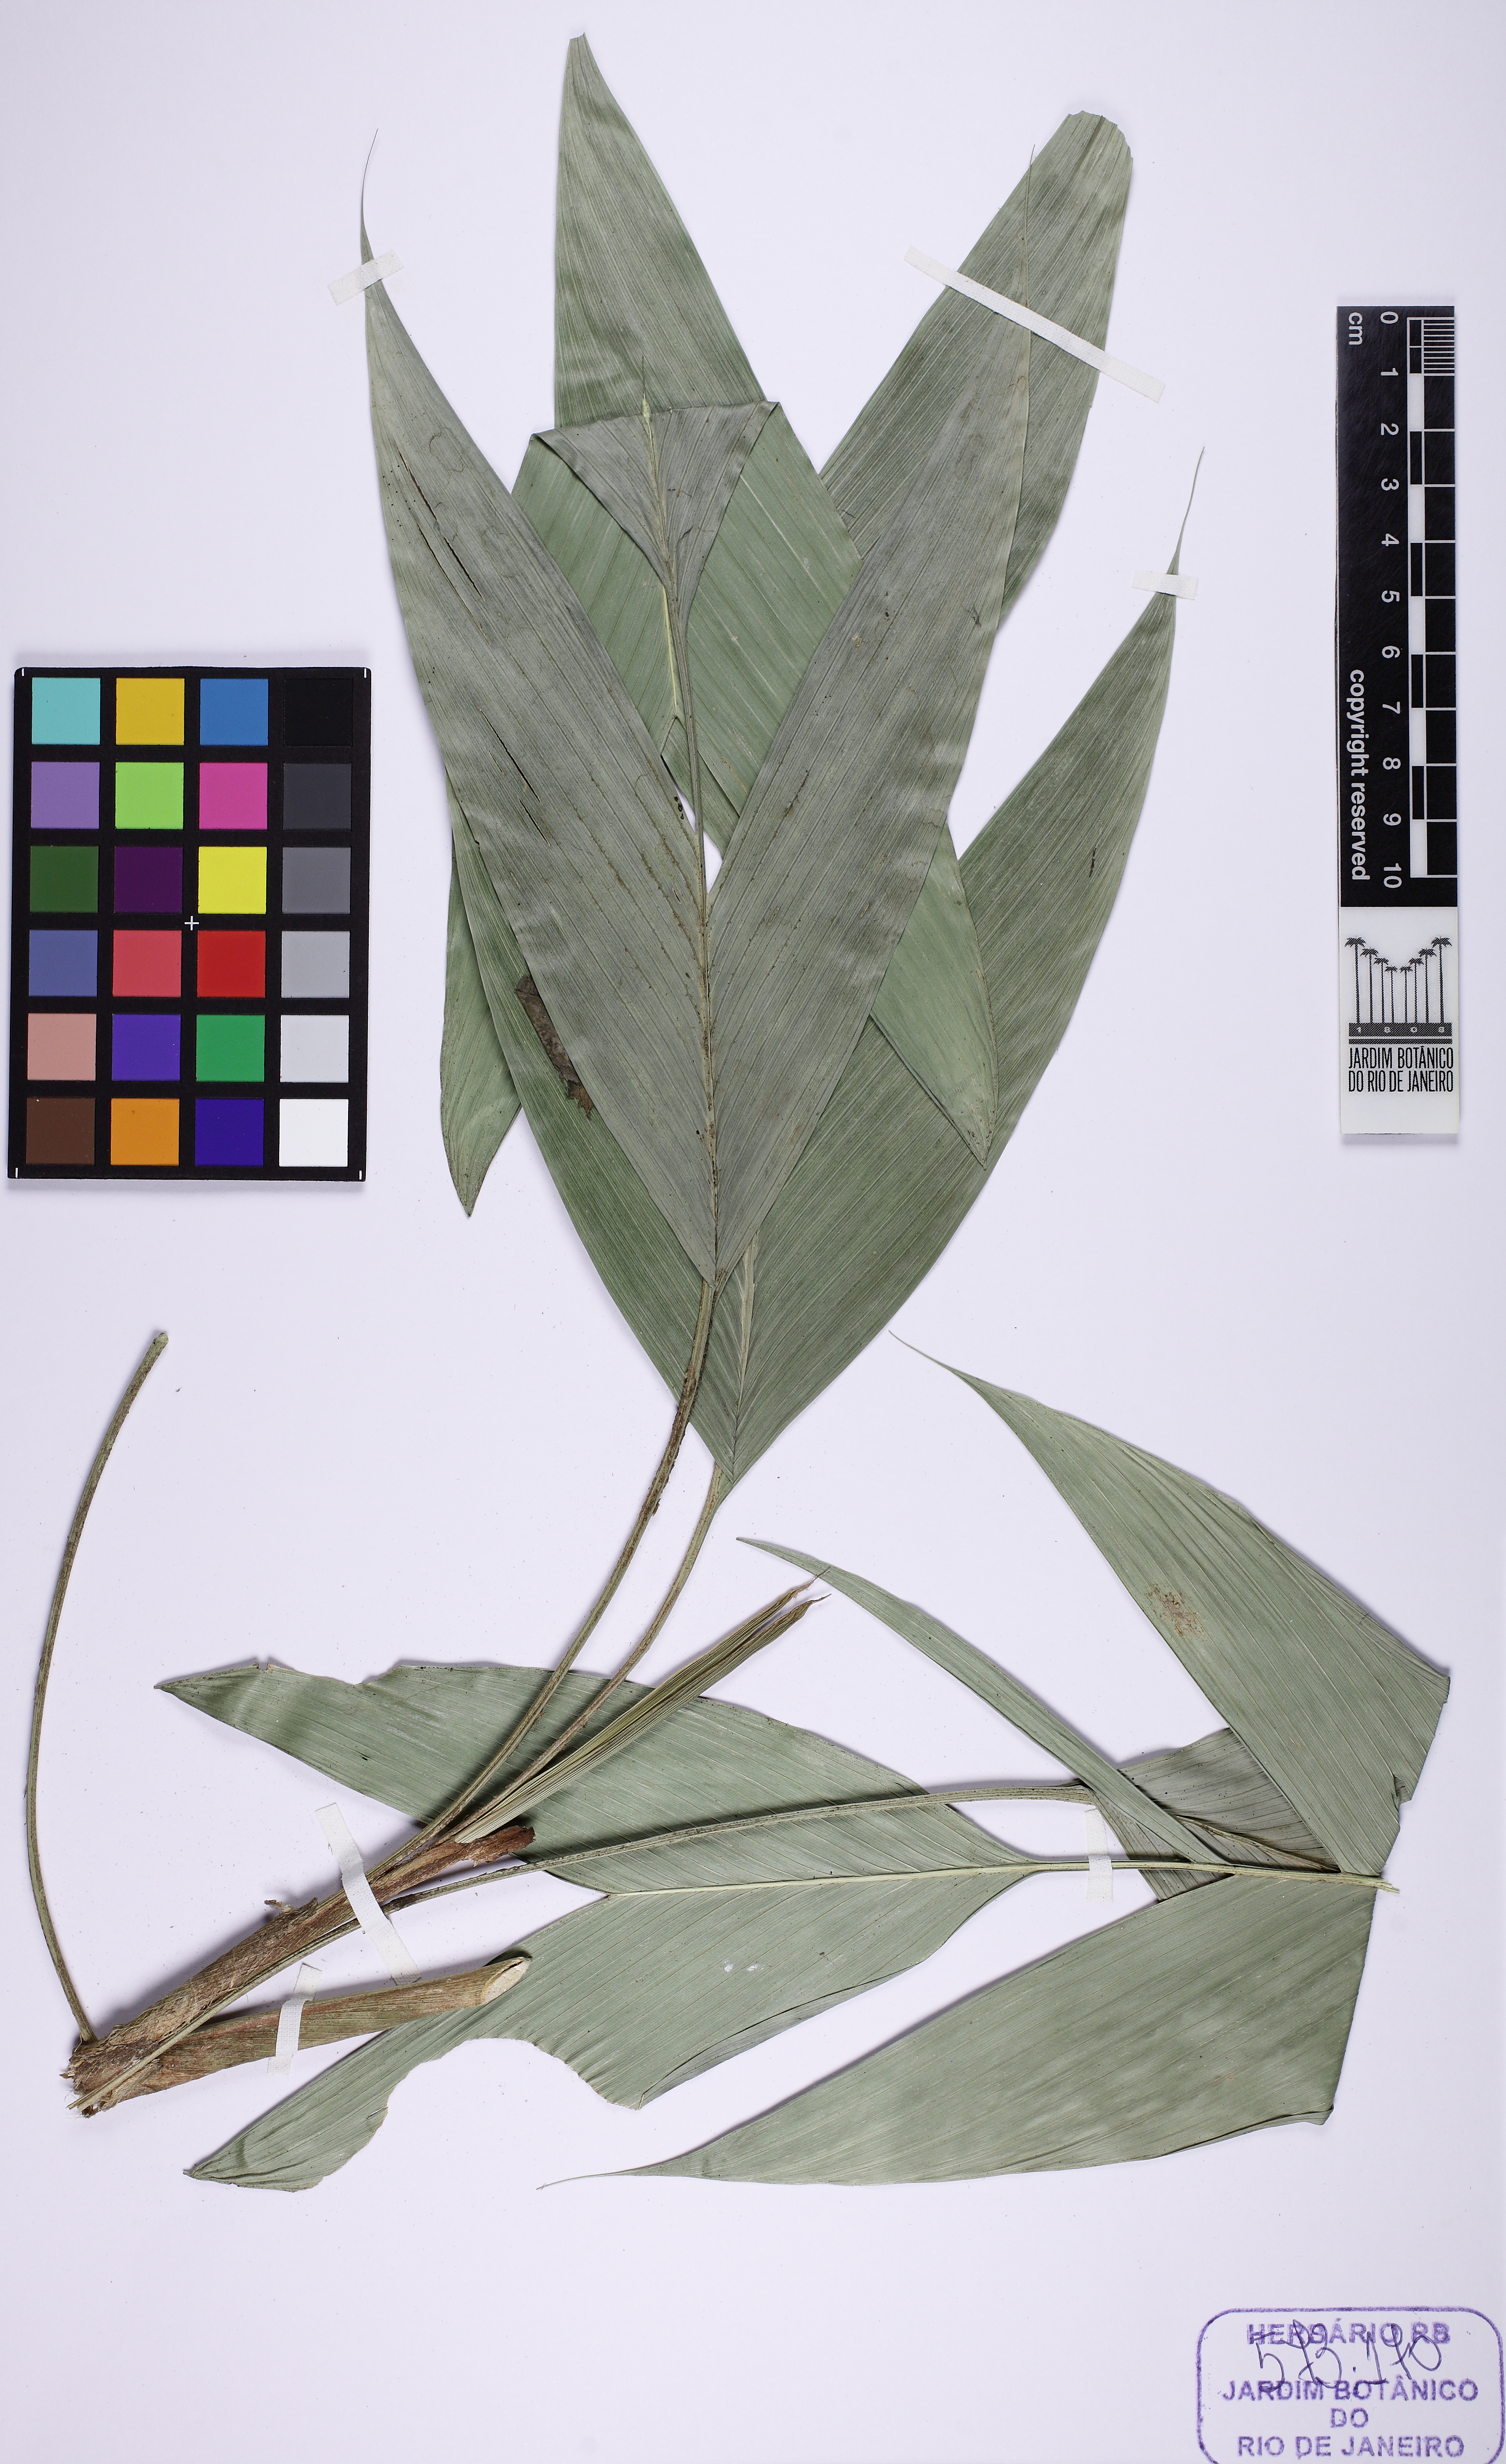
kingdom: Plantae
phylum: Tracheophyta
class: Liliopsida
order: Arecales
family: Arecaceae
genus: Geonoma
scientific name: Geonoma elegans
